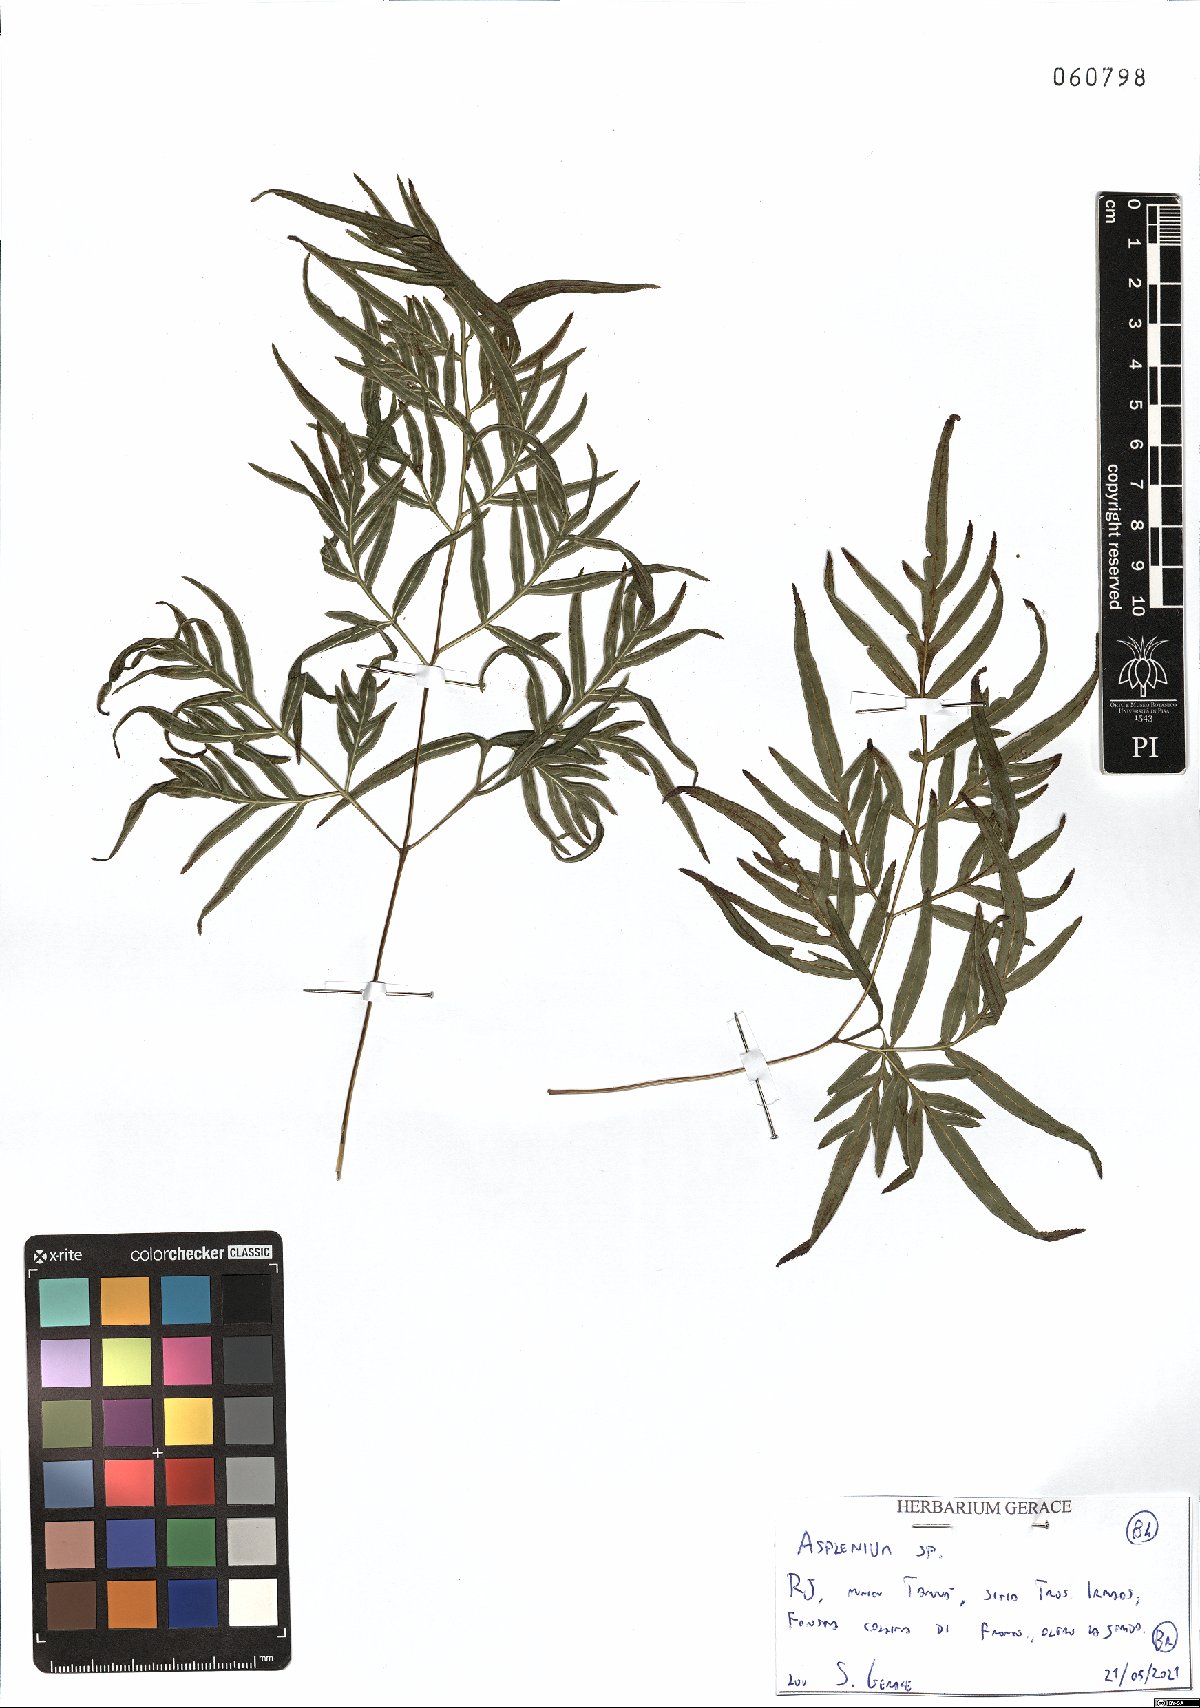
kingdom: Plantae
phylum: Tracheophyta
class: Polypodiopsida
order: Polypodiales
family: Aspleniaceae
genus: Asplenium
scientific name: Asplenium
